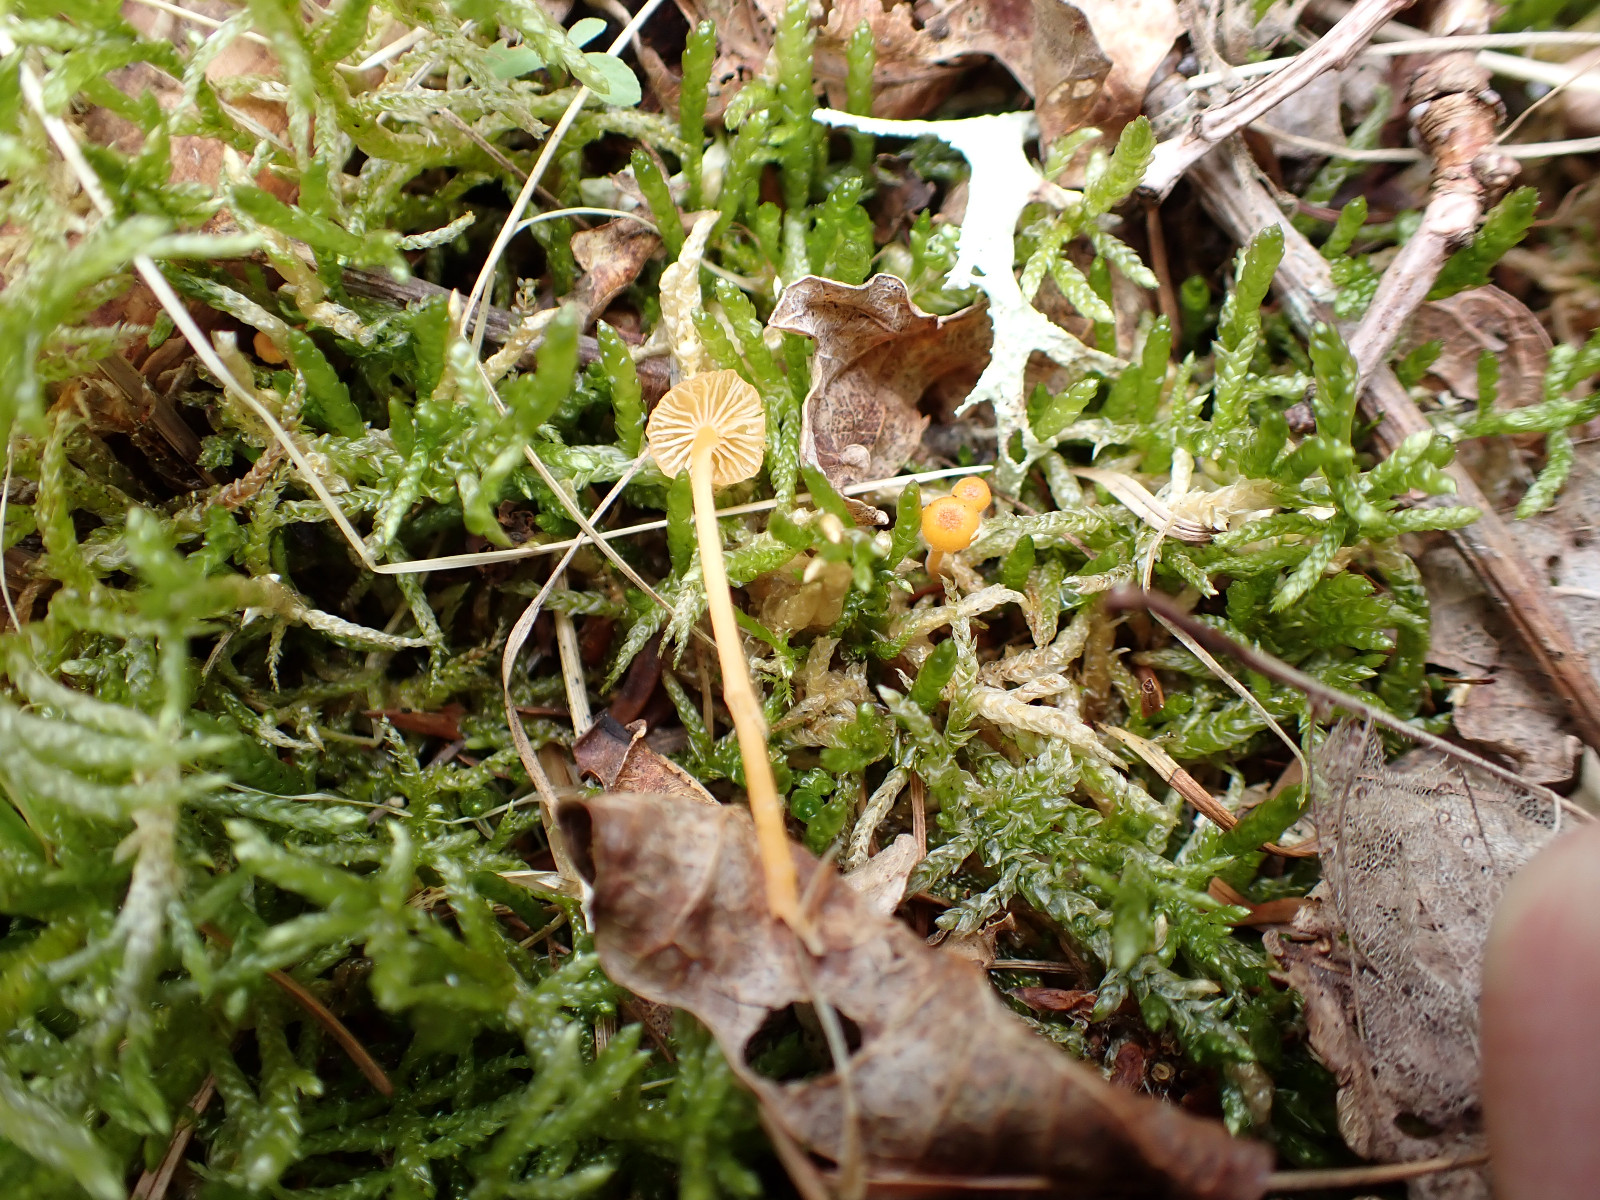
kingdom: Fungi
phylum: Basidiomycota
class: Agaricomycetes
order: Hymenochaetales
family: Rickenellaceae
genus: Rickenella
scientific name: Rickenella fibula
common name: orange mosnavlehat
